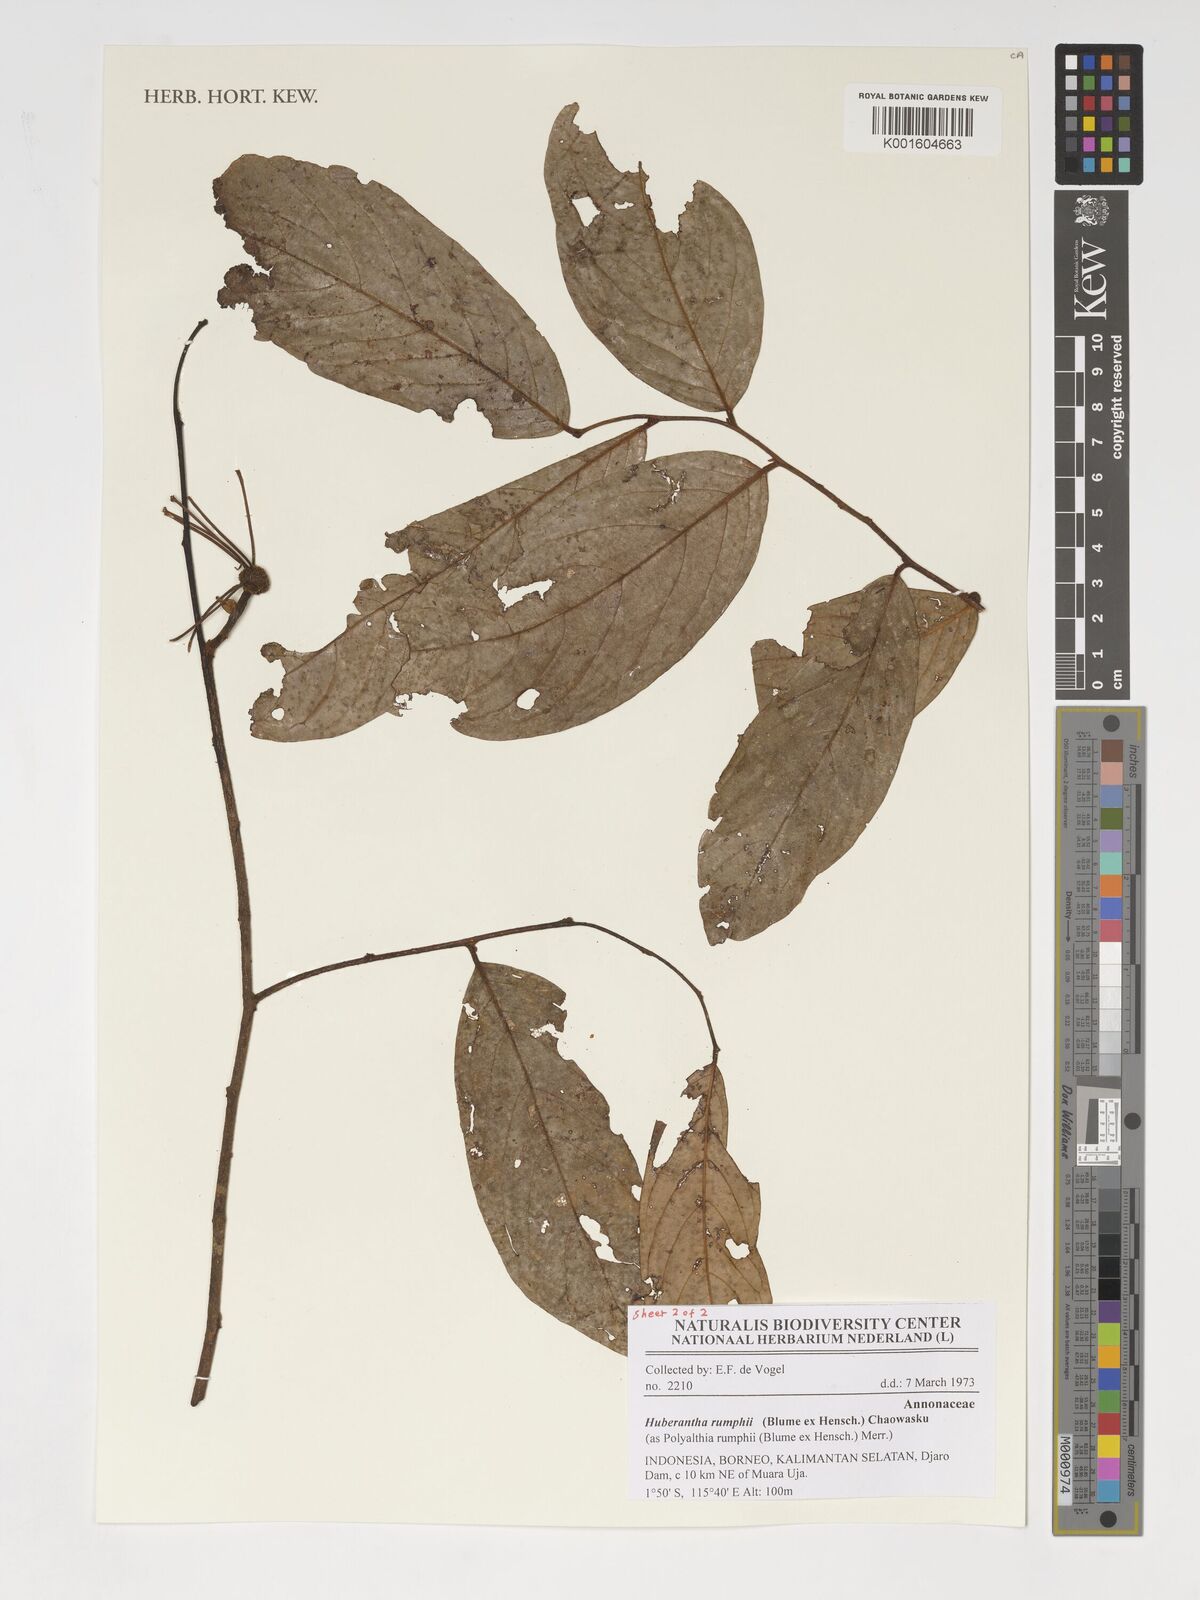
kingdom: Plantae
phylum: Tracheophyta
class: Magnoliopsida
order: Magnoliales
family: Annonaceae
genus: Hubera
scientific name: Hubera rumphii
